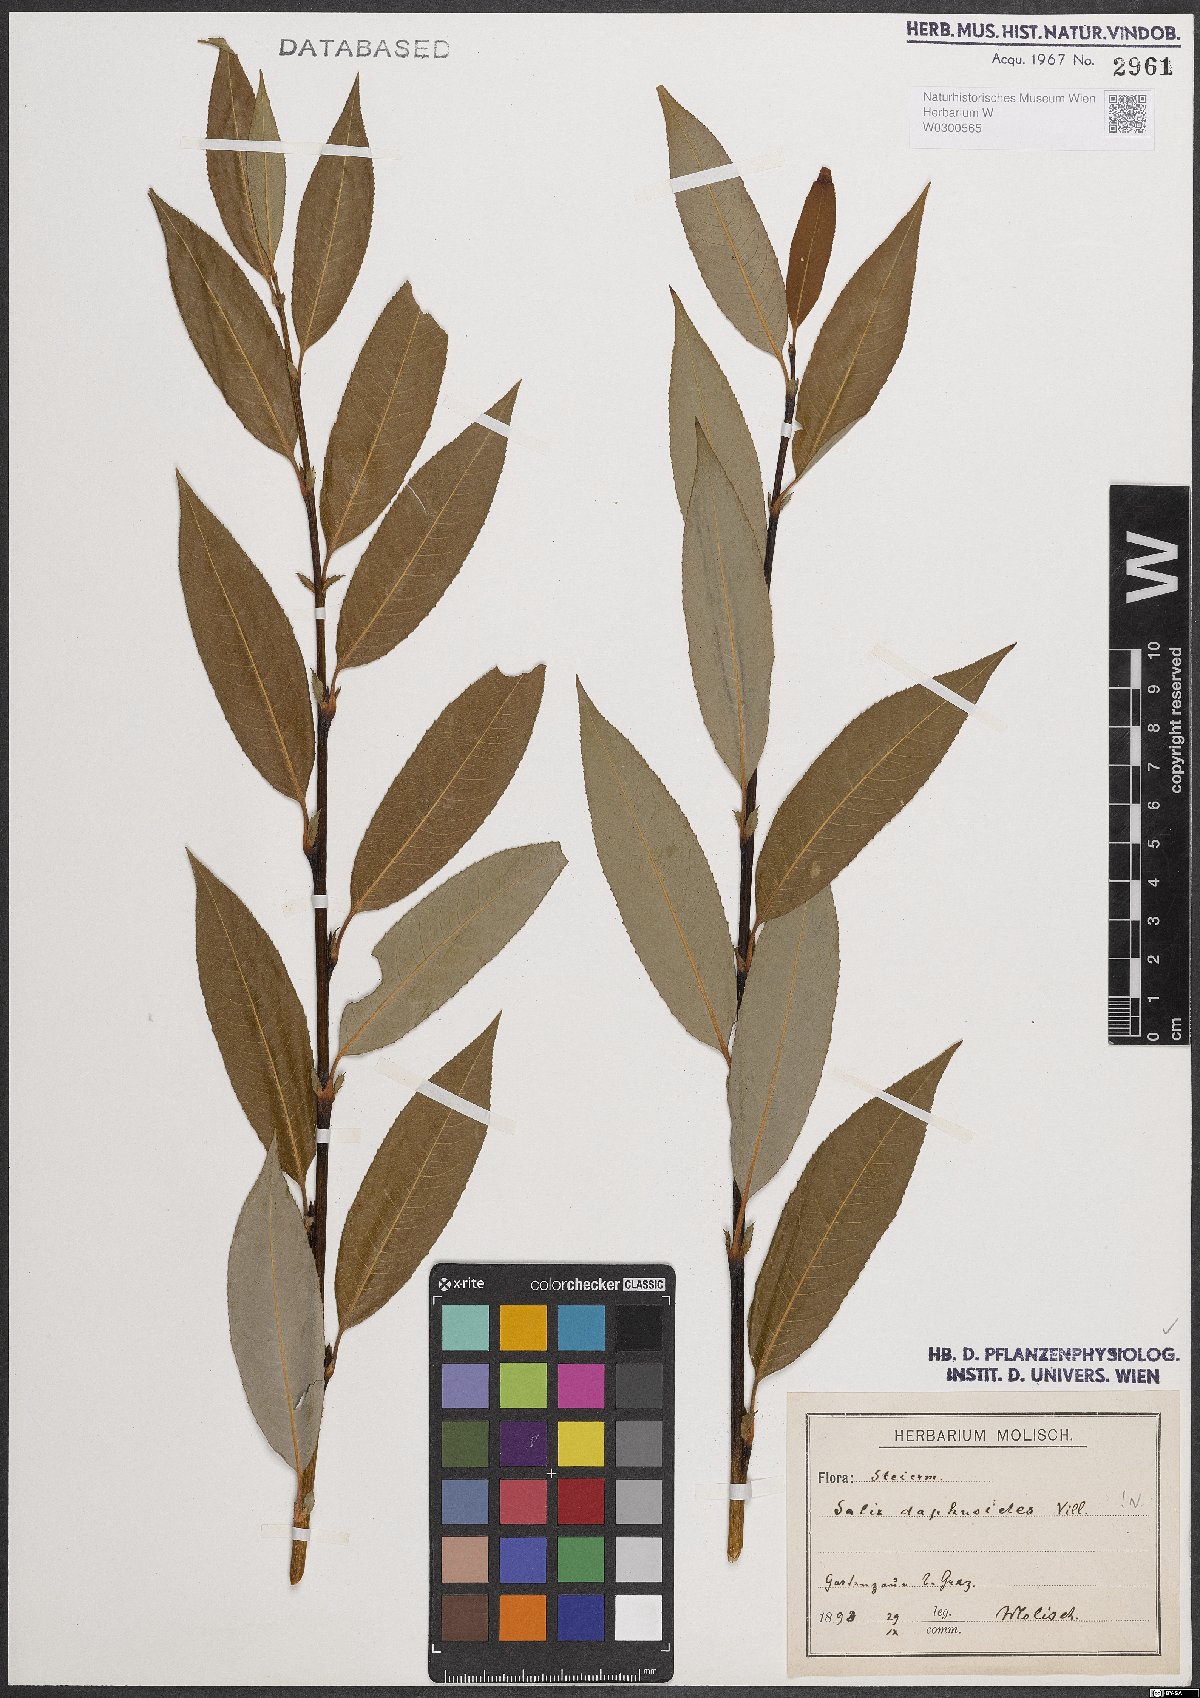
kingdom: Plantae
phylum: Tracheophyta
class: Magnoliopsida
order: Malpighiales
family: Salicaceae
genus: Salix
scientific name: Salix daphnoides
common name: European violet-willow
